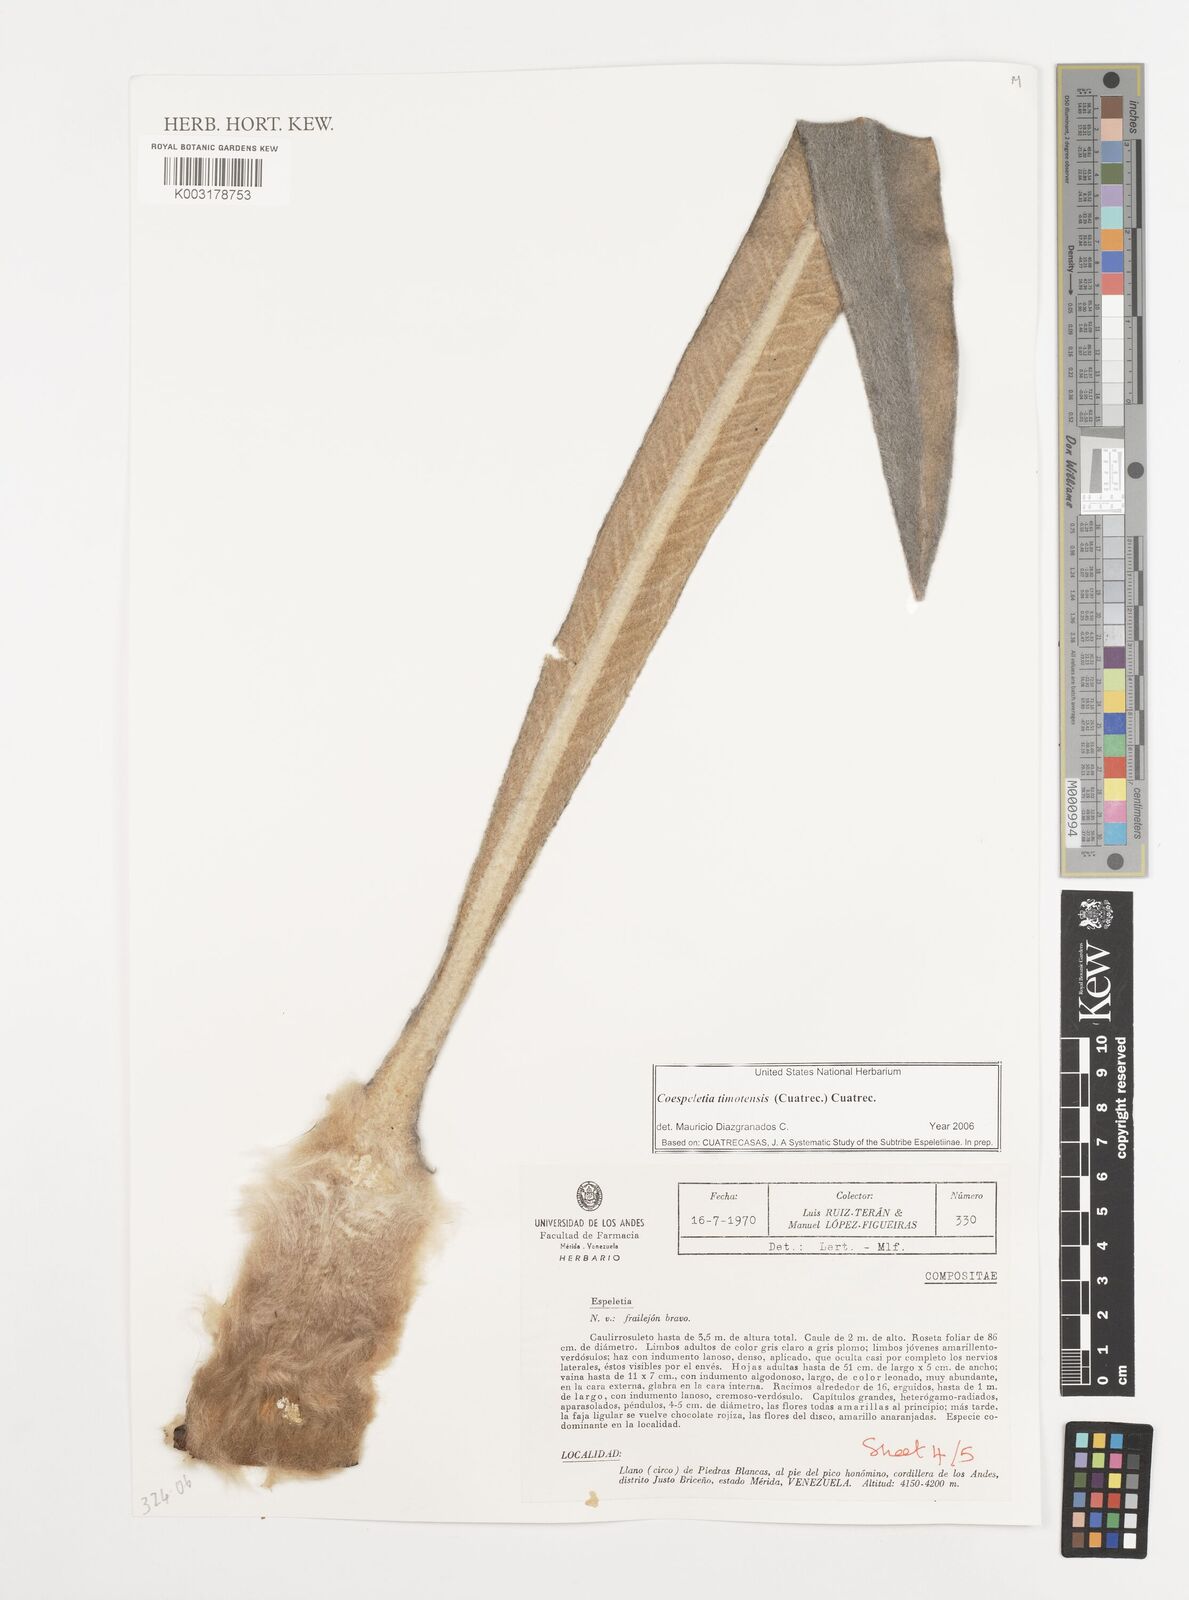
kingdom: Plantae
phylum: Tracheophyta
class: Magnoliopsida
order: Asterales
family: Asteraceae
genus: Espeletia
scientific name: Espeletia timotensis
